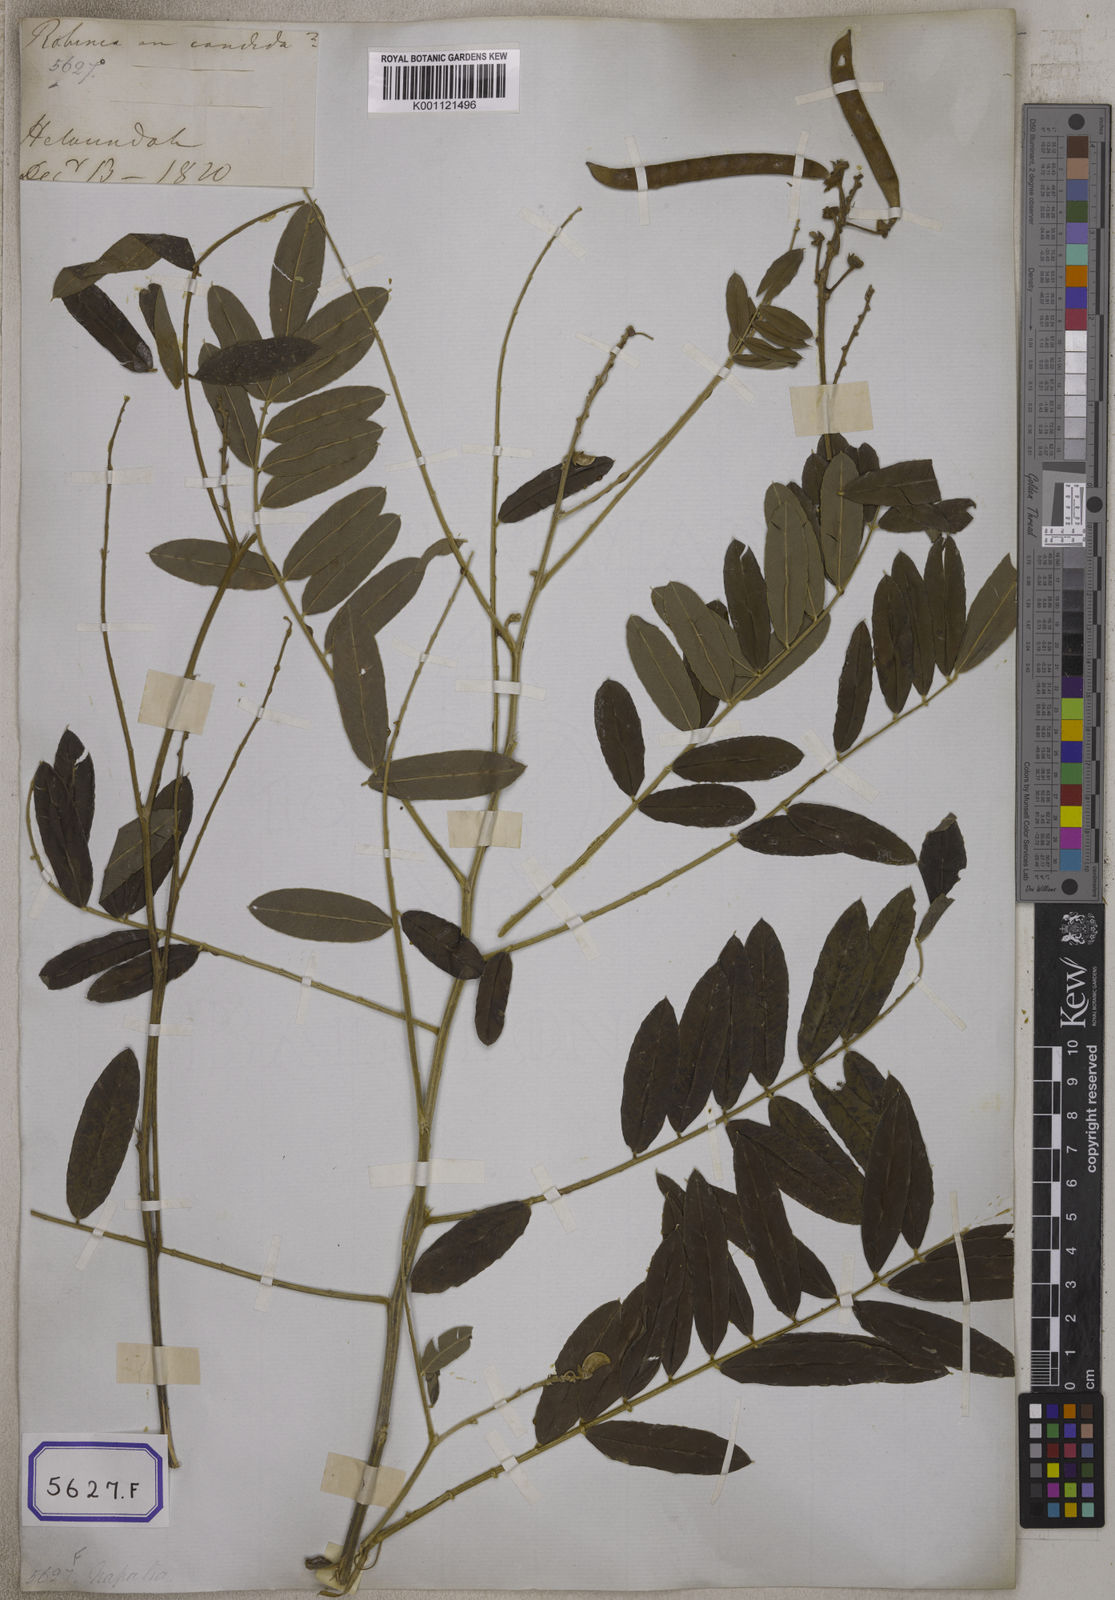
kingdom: Plantae
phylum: Tracheophyta
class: Magnoliopsida
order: Fabales
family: Fabaceae
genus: Tephrosia
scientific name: Tephrosia candida
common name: White tephrosia
